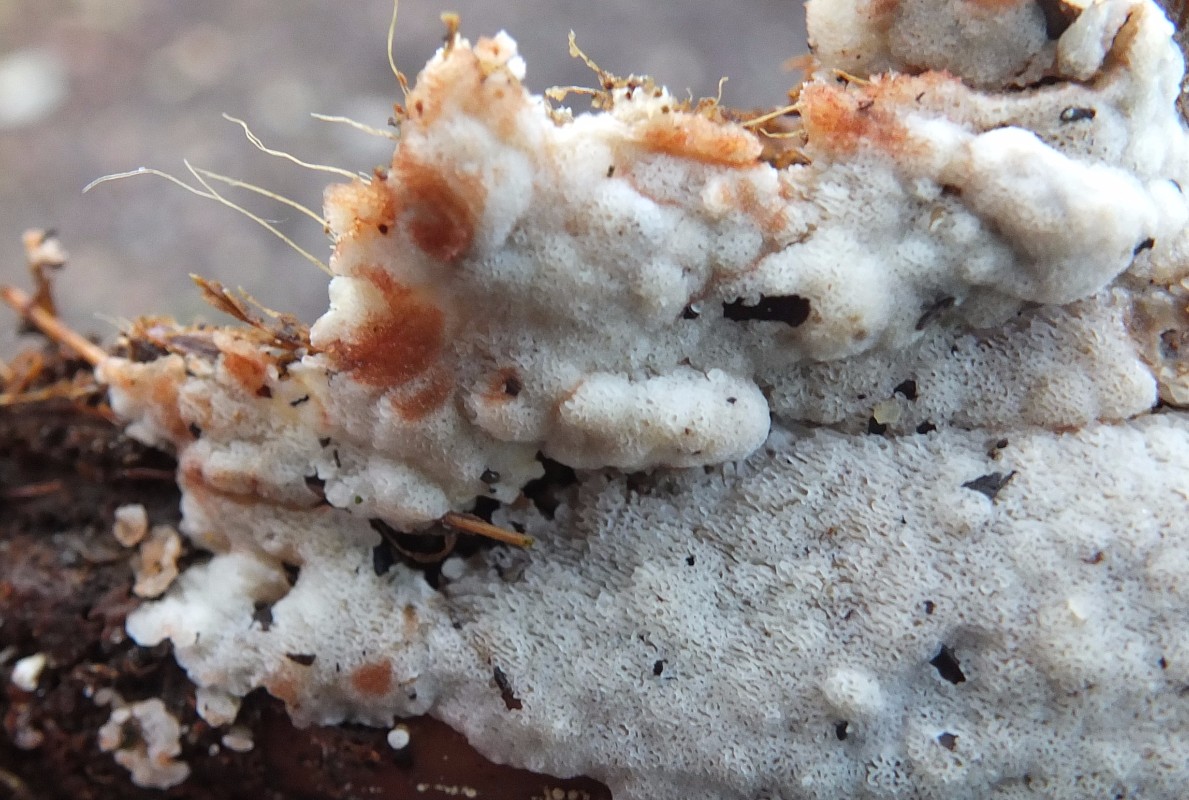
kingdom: Fungi
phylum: Basidiomycota
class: Agaricomycetes
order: Polyporales
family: Meripilaceae
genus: Rigidoporus
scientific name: Rigidoporus sanguinolentus
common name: blod-skorpeporesvamp
